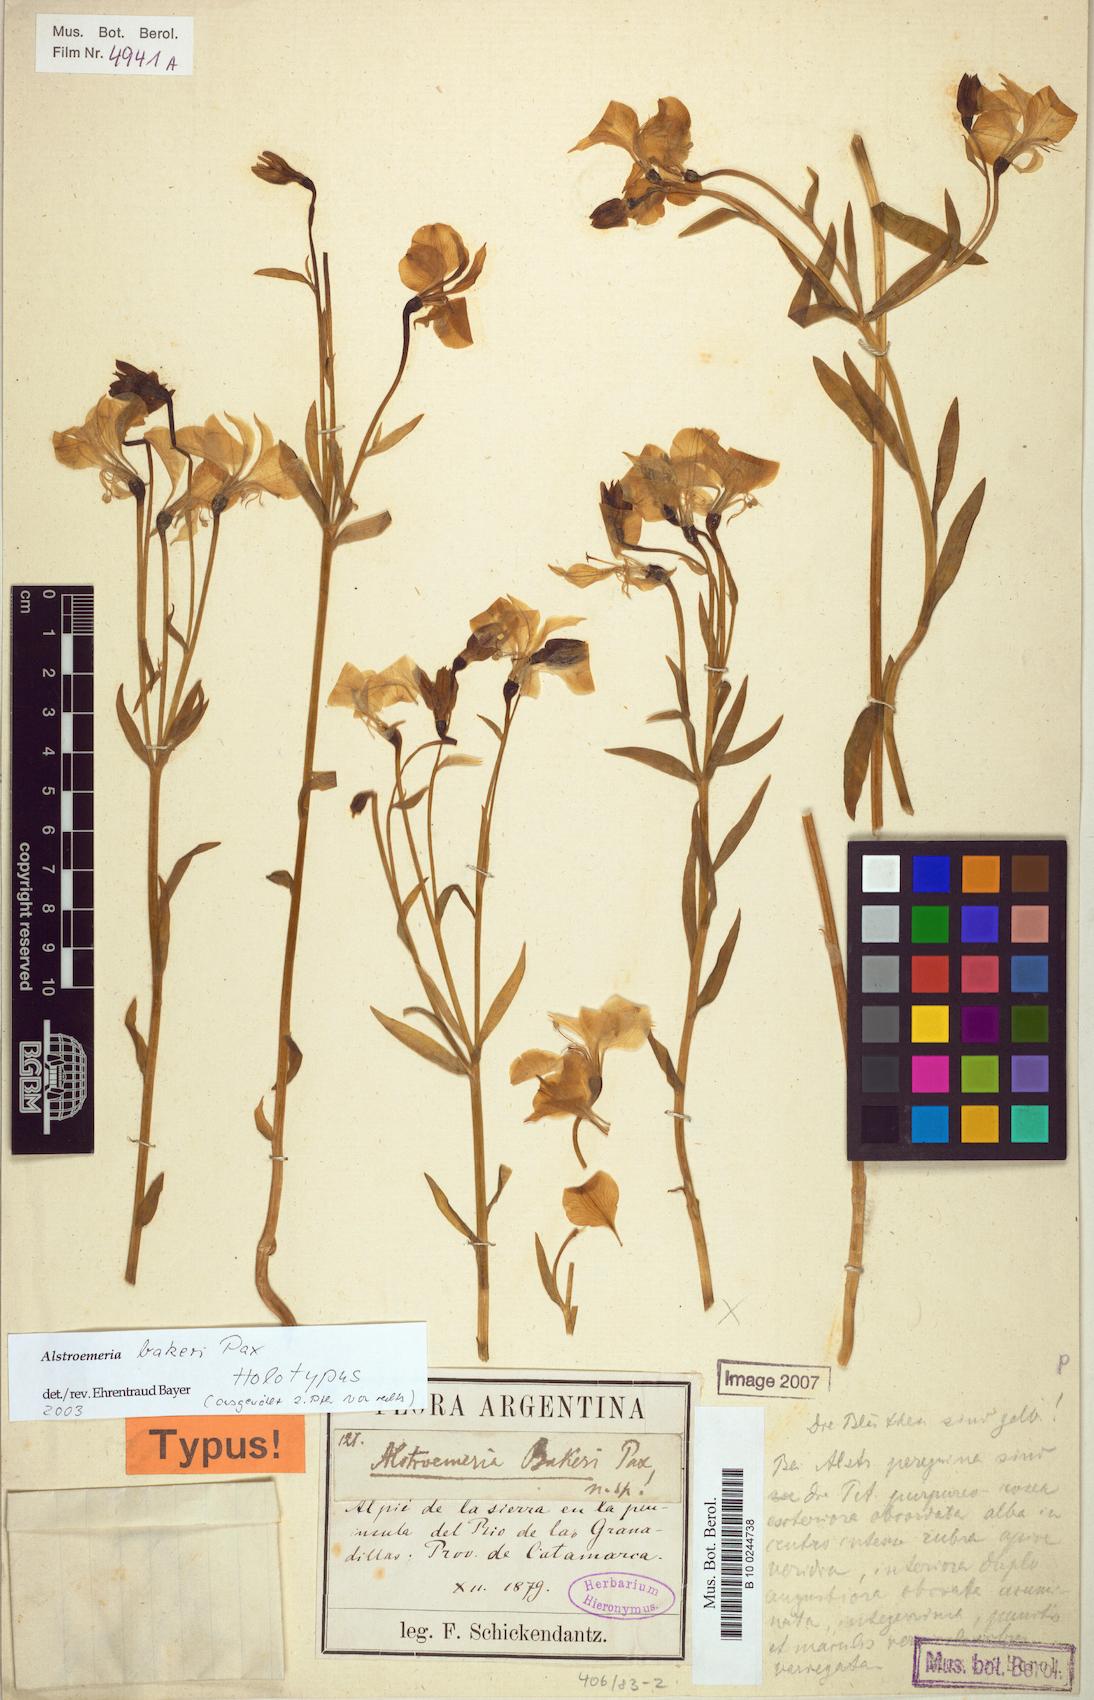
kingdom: Plantae
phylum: Tracheophyta
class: Liliopsida
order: Liliales
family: Alstroemeriaceae
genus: Alstroemeria
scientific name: Alstroemeria bakeri
